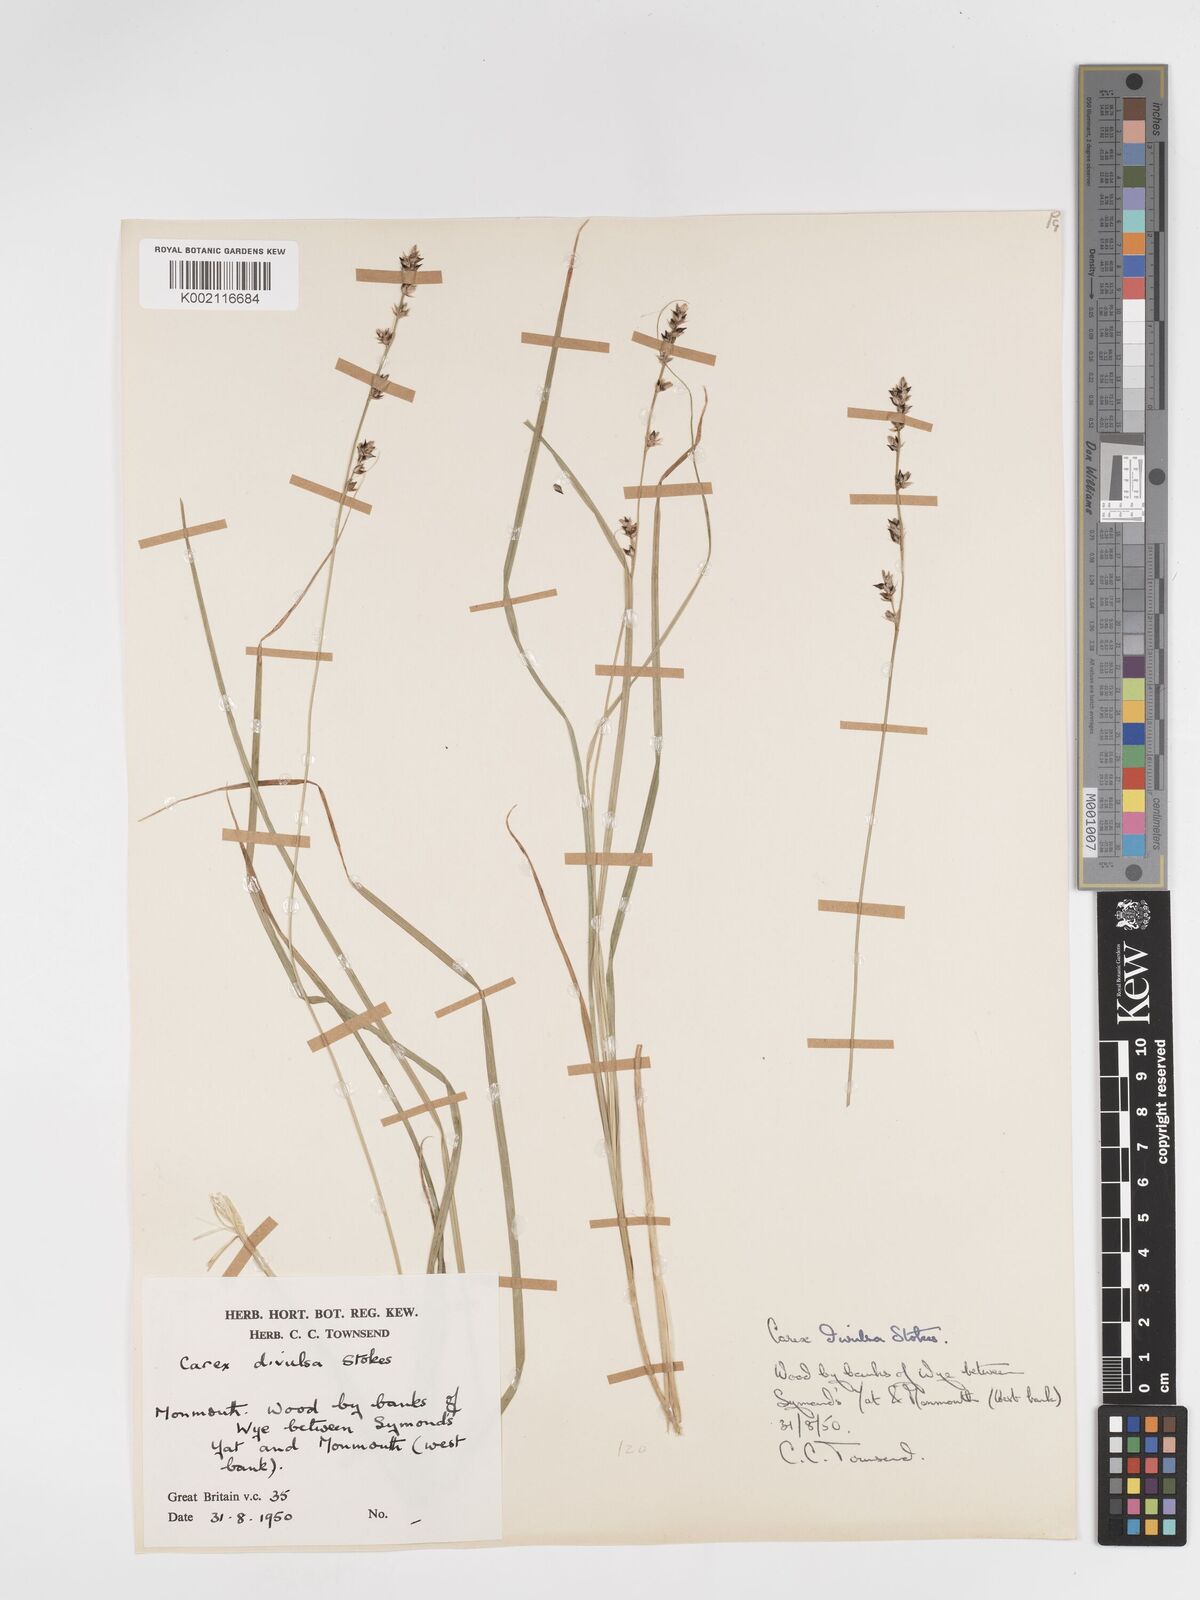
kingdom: Plantae
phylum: Tracheophyta
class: Liliopsida
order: Poales
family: Cyperaceae
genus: Carex
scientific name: Carex divulsa
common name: Grassland sedge
